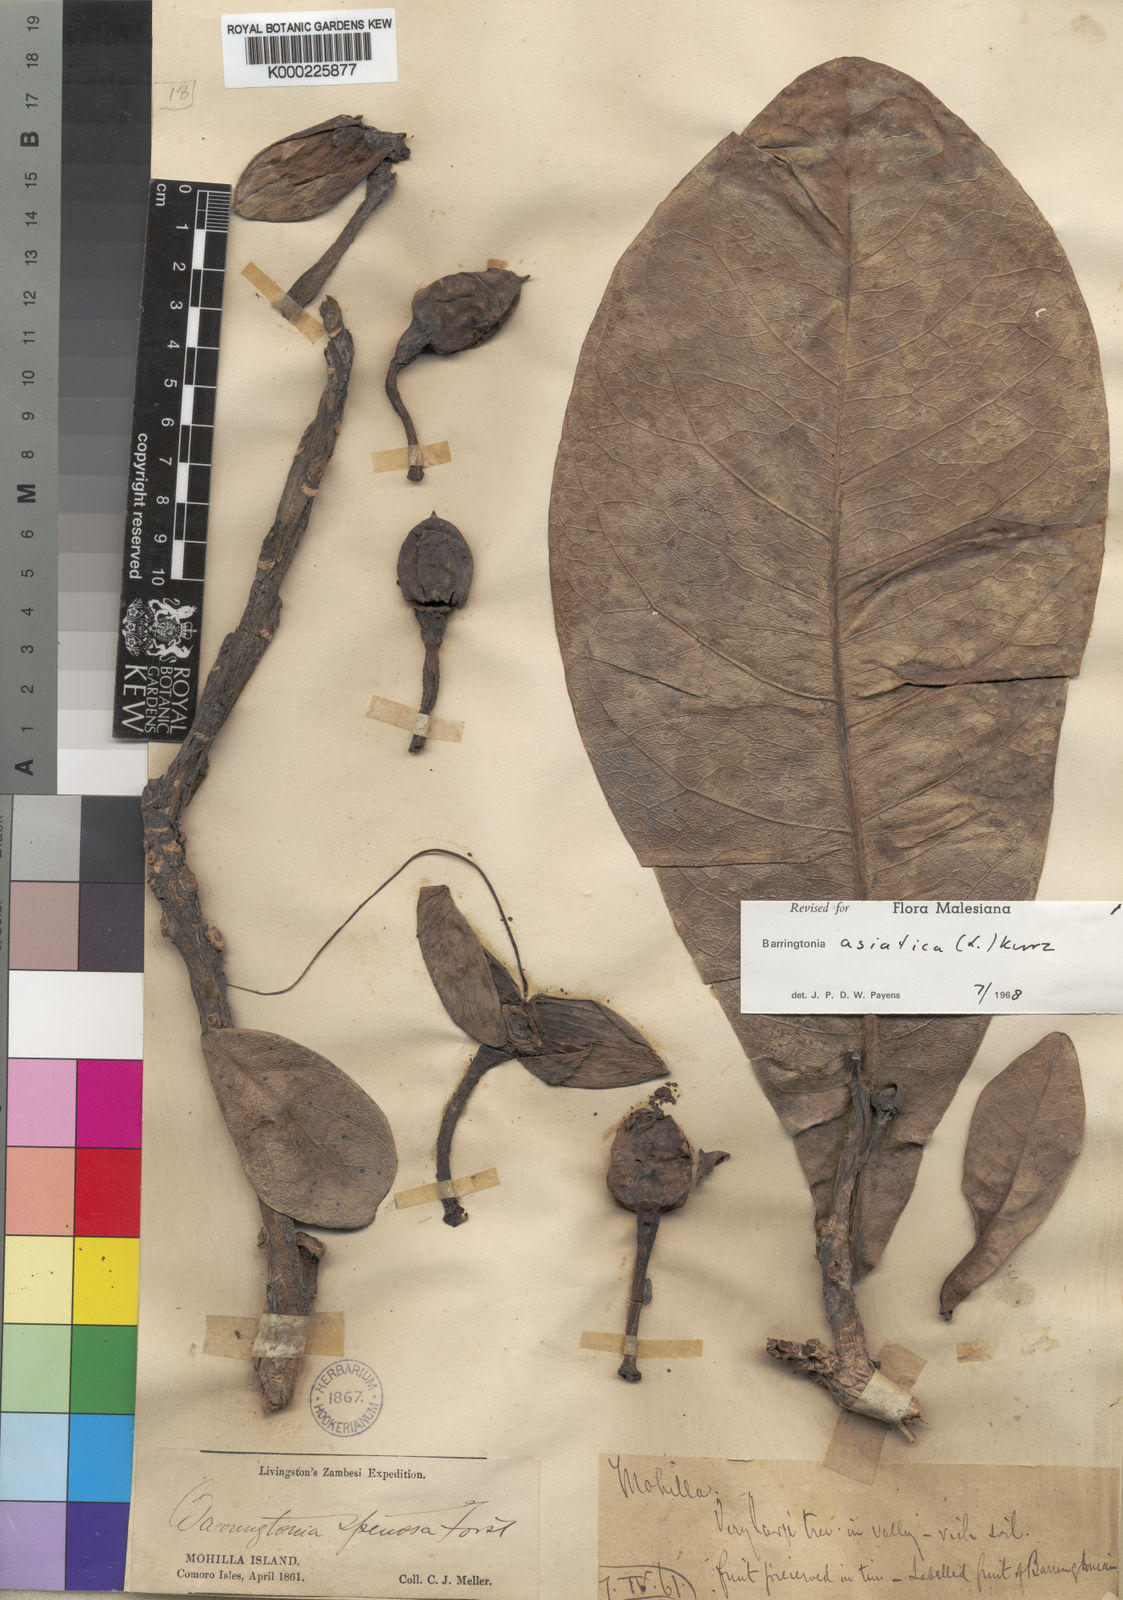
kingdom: Plantae
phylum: Tracheophyta
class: Magnoliopsida
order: Ericales
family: Lecythidaceae
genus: Barringtonia
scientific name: Barringtonia asiatica
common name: Mango-pine
